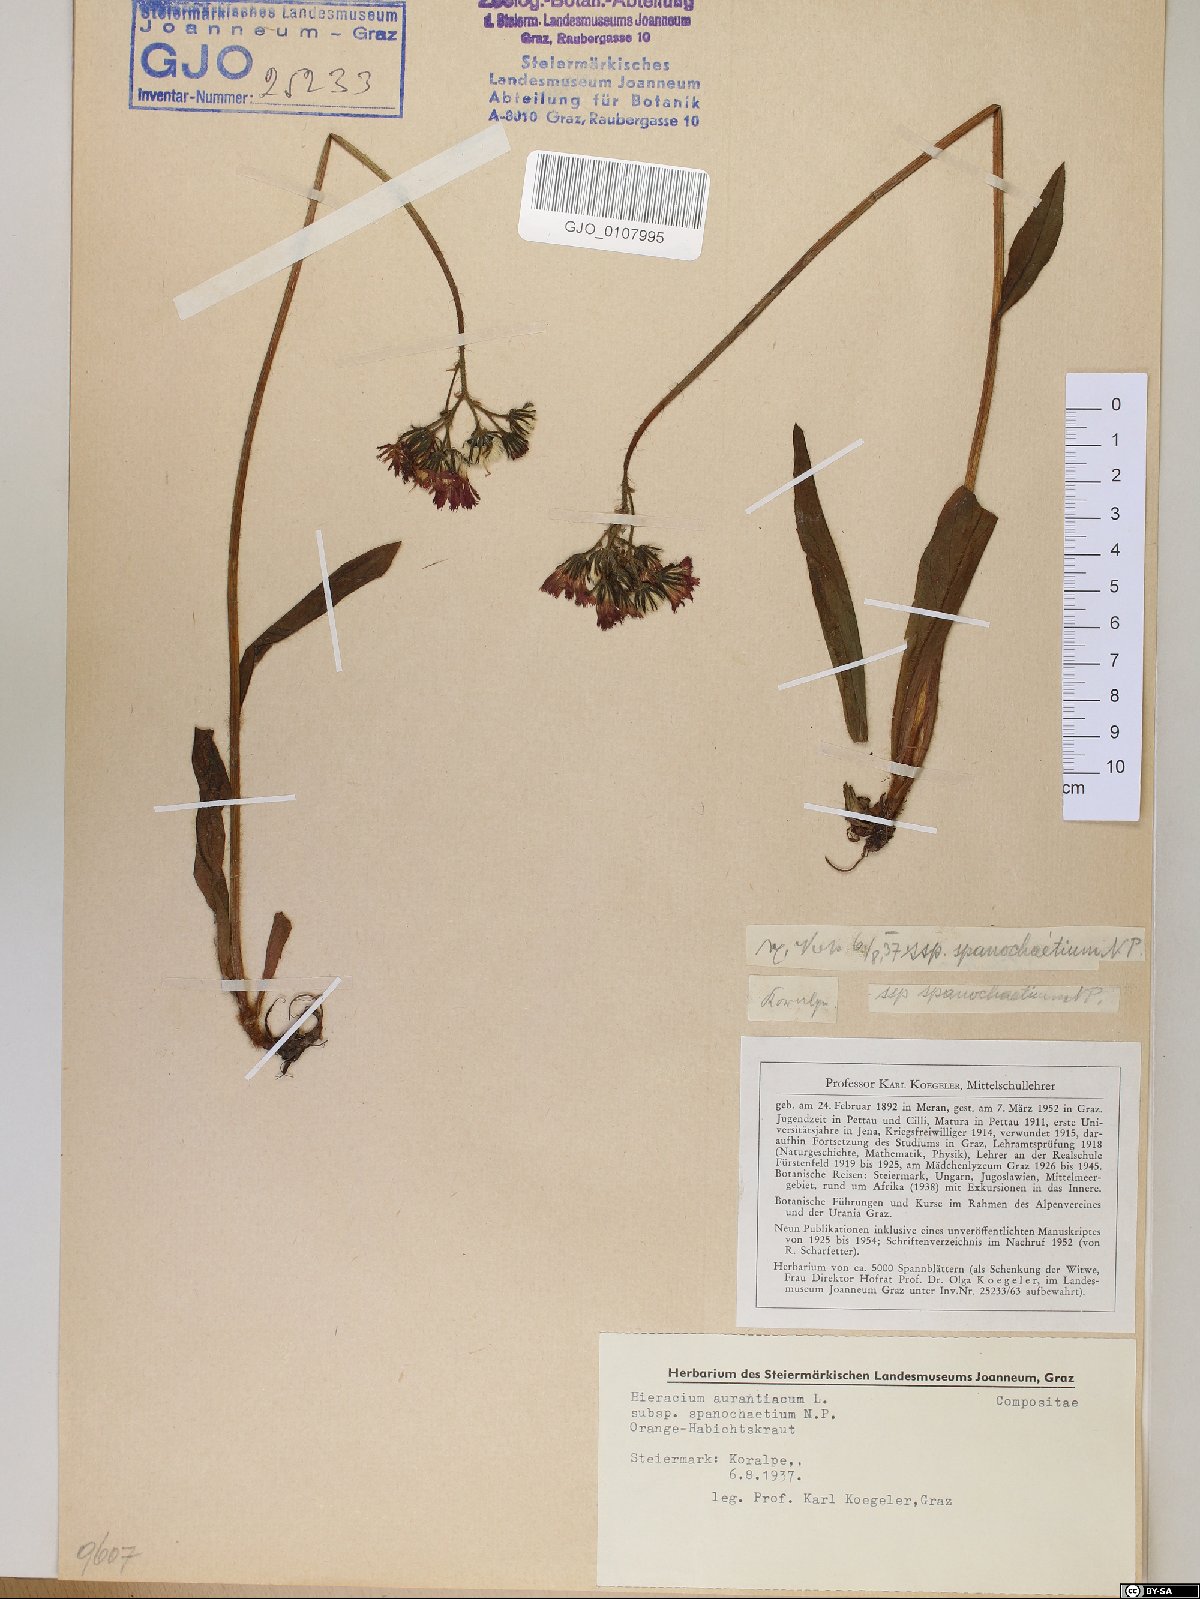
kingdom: Plantae
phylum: Tracheophyta
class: Magnoliopsida
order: Asterales
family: Asteraceae
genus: Pilosella
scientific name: Pilosella aurantiaca
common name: Fox-and-cubs
